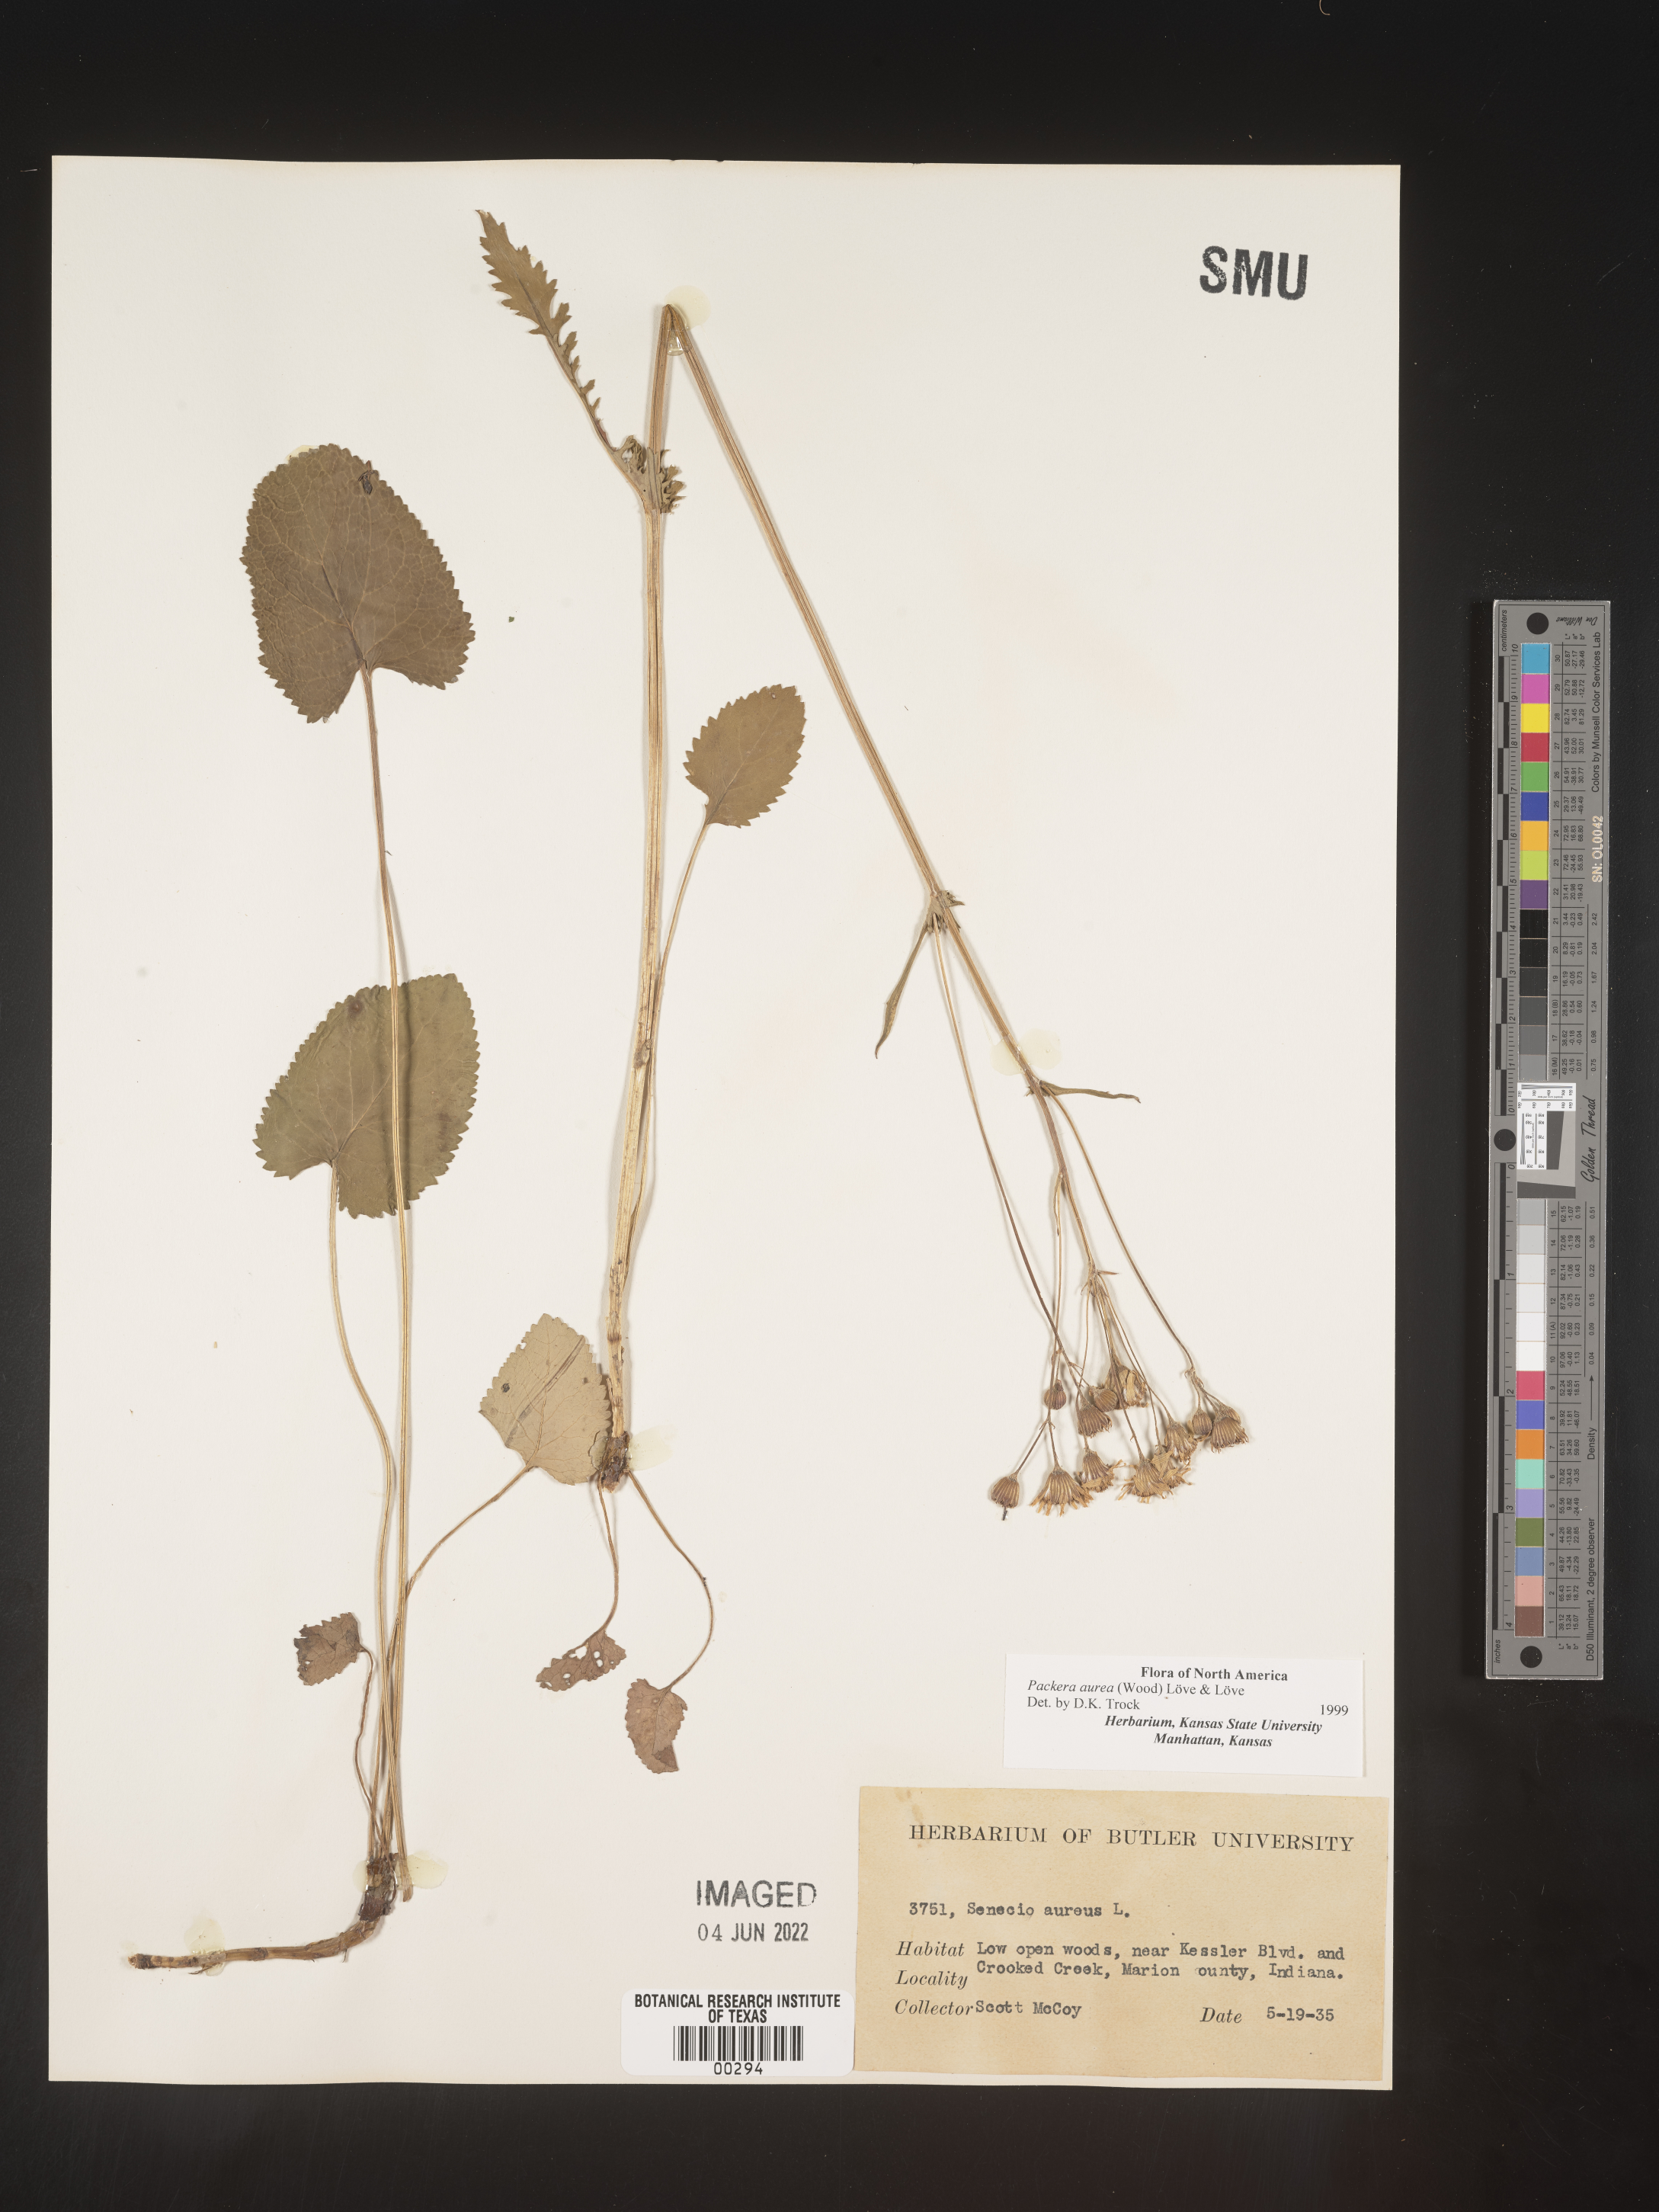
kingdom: Plantae
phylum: Tracheophyta
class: Magnoliopsida
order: Asterales
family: Asteraceae
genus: Packera
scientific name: Packera aurea
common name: Golden groundsel
